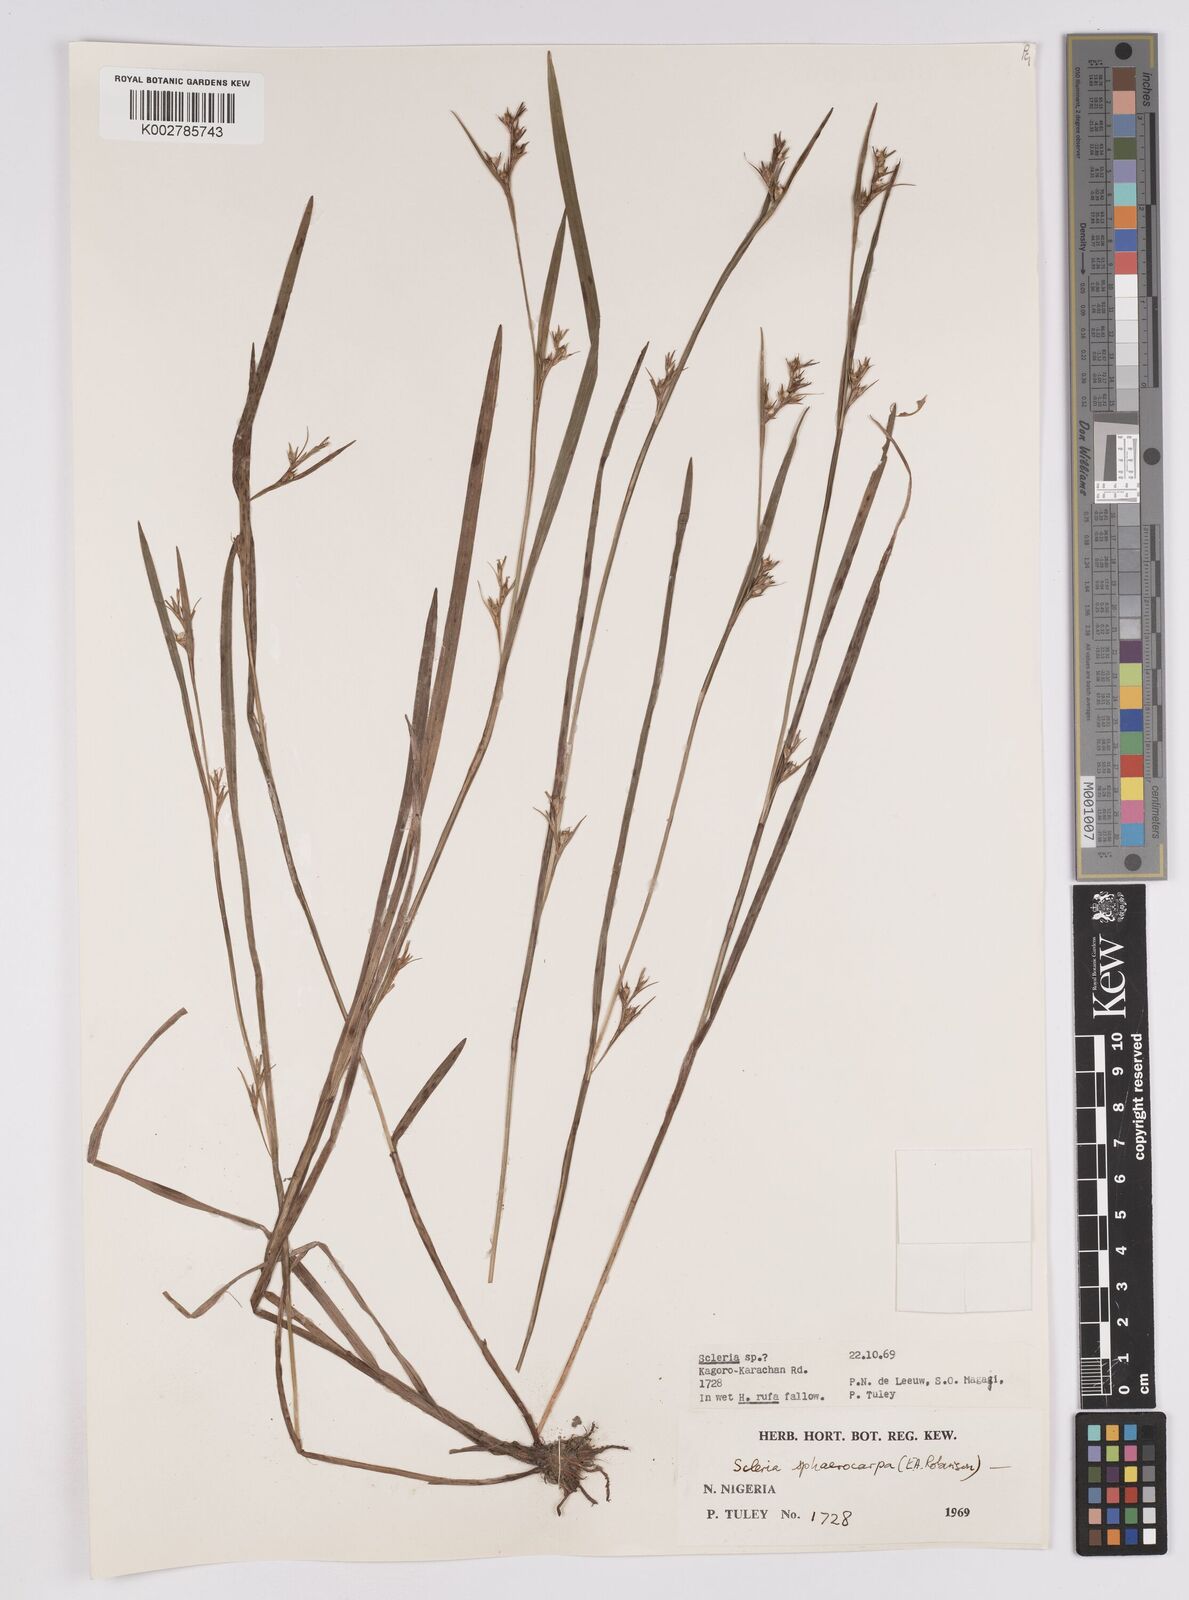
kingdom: Plantae
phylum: Tracheophyta
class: Liliopsida
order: Poales
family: Cyperaceae
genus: Scleria
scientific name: Scleria tessellata
